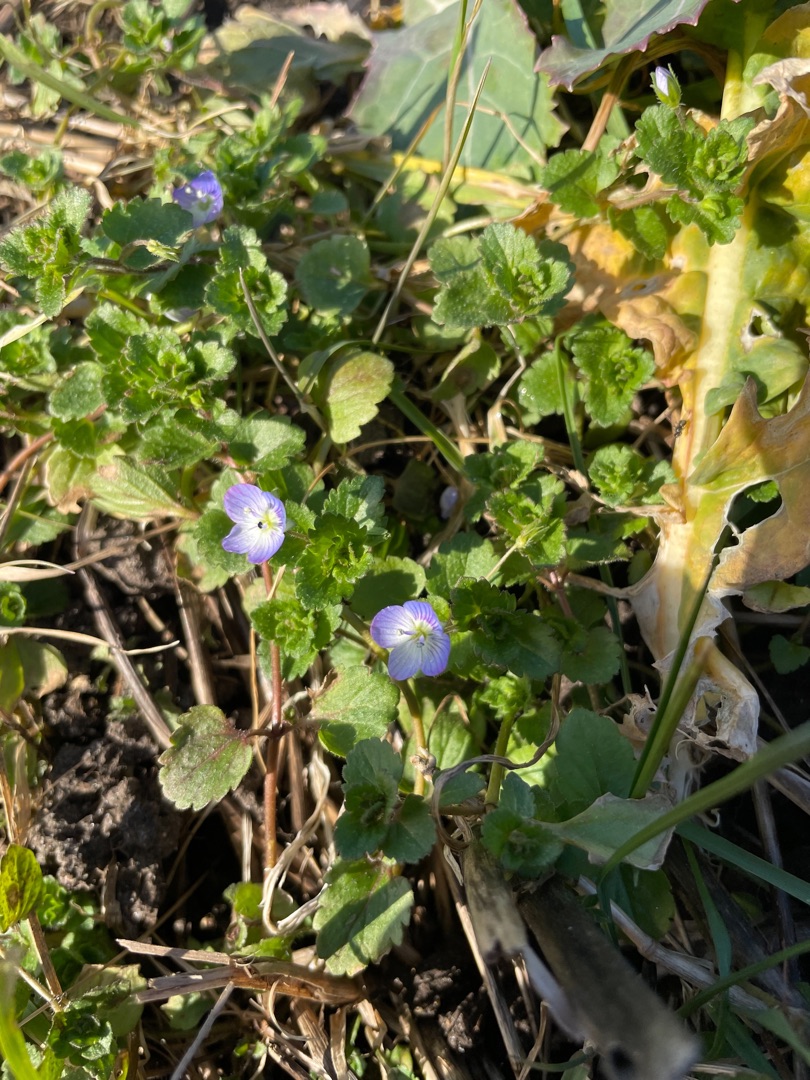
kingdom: Plantae
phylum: Tracheophyta
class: Magnoliopsida
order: Lamiales
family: Plantaginaceae
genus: Veronica
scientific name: Veronica persica
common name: Storkronet ærenpris
